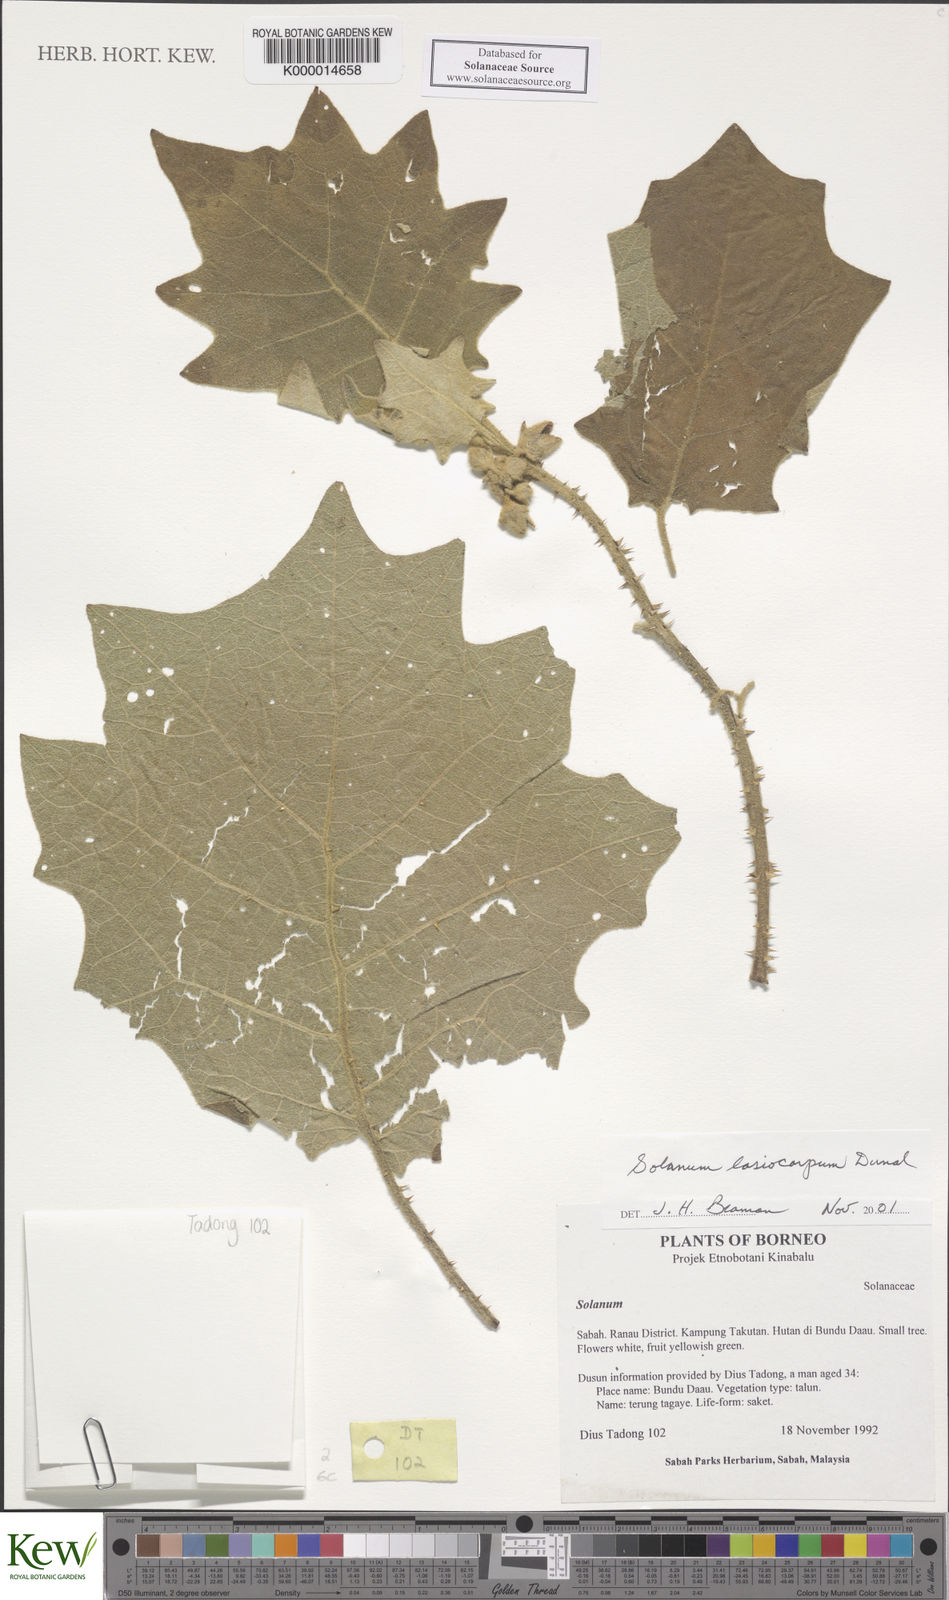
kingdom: Plantae
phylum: Tracheophyta
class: Magnoliopsida
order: Solanales
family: Solanaceae
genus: Solanum
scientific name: Solanum lasiocarpum
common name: Indian nightshade
